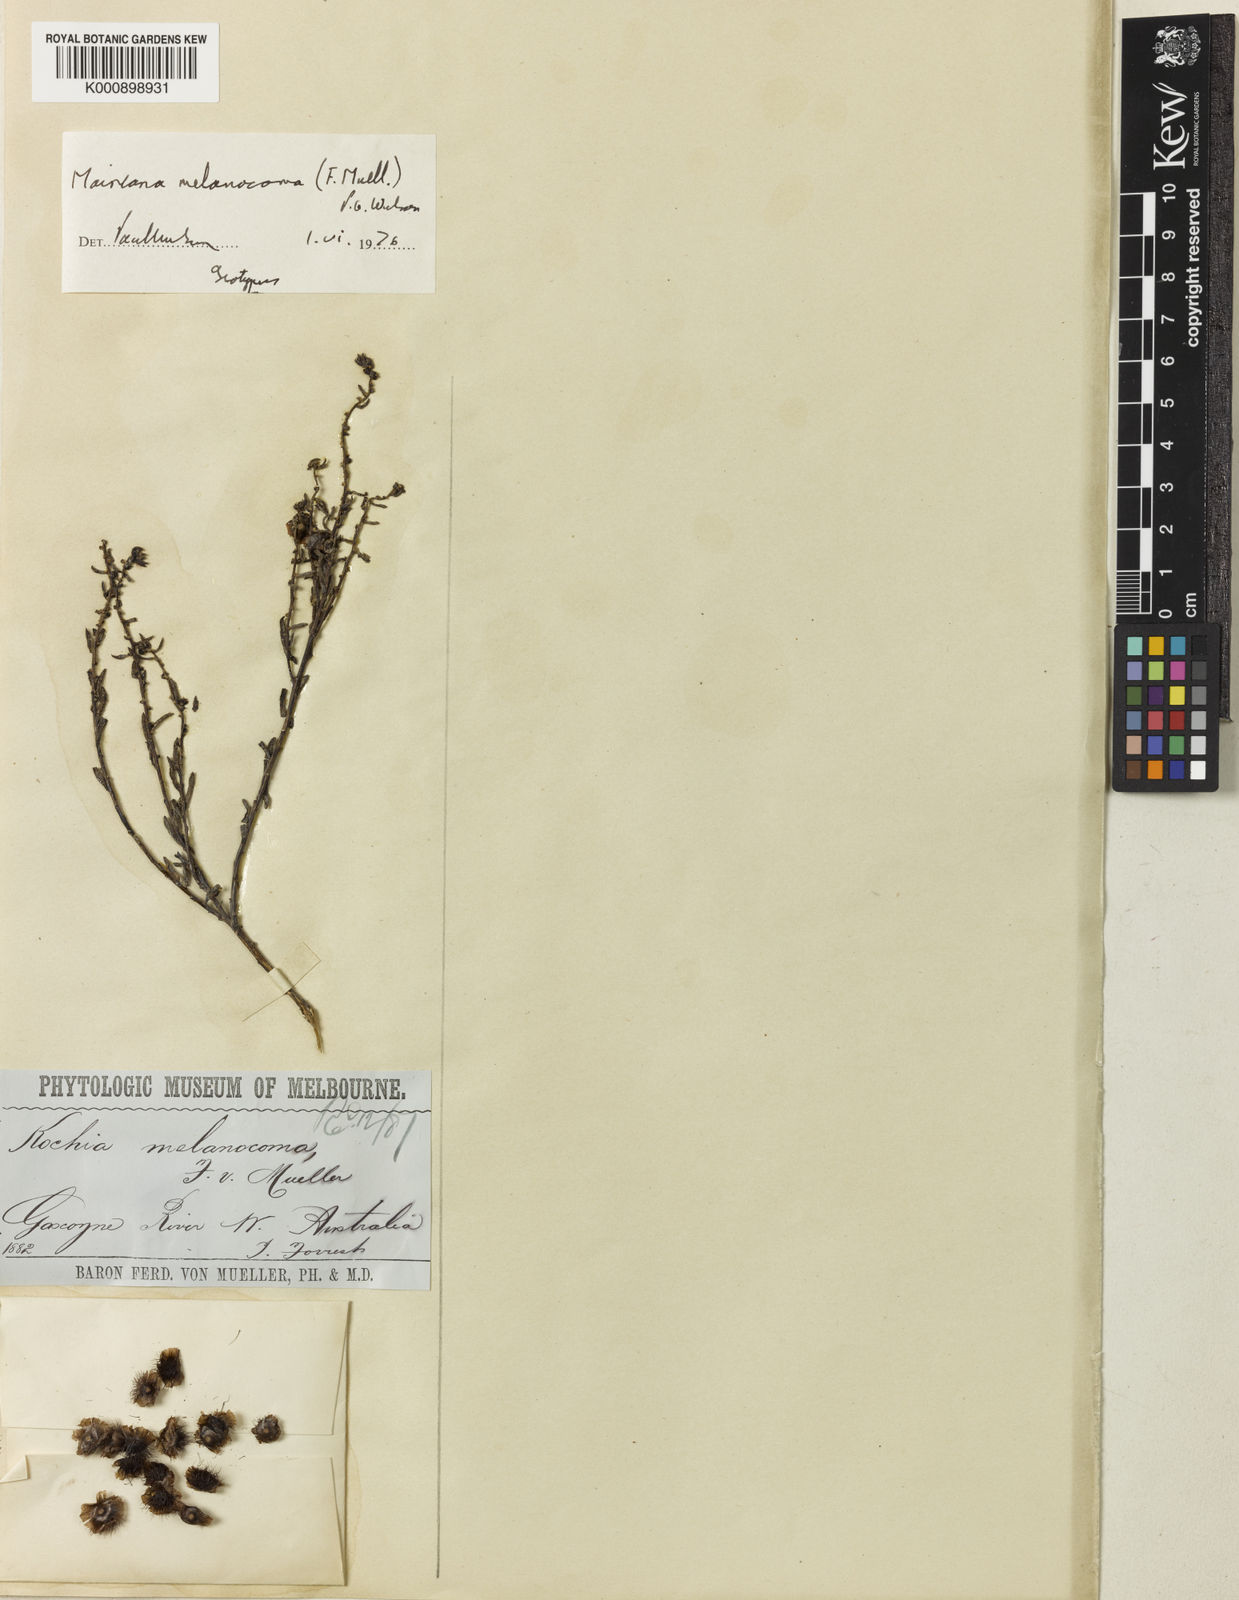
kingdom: Plantae
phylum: Tracheophyta
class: Magnoliopsida
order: Caryophyllales
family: Amaranthaceae
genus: Maireana
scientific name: Maireana melanocoma
